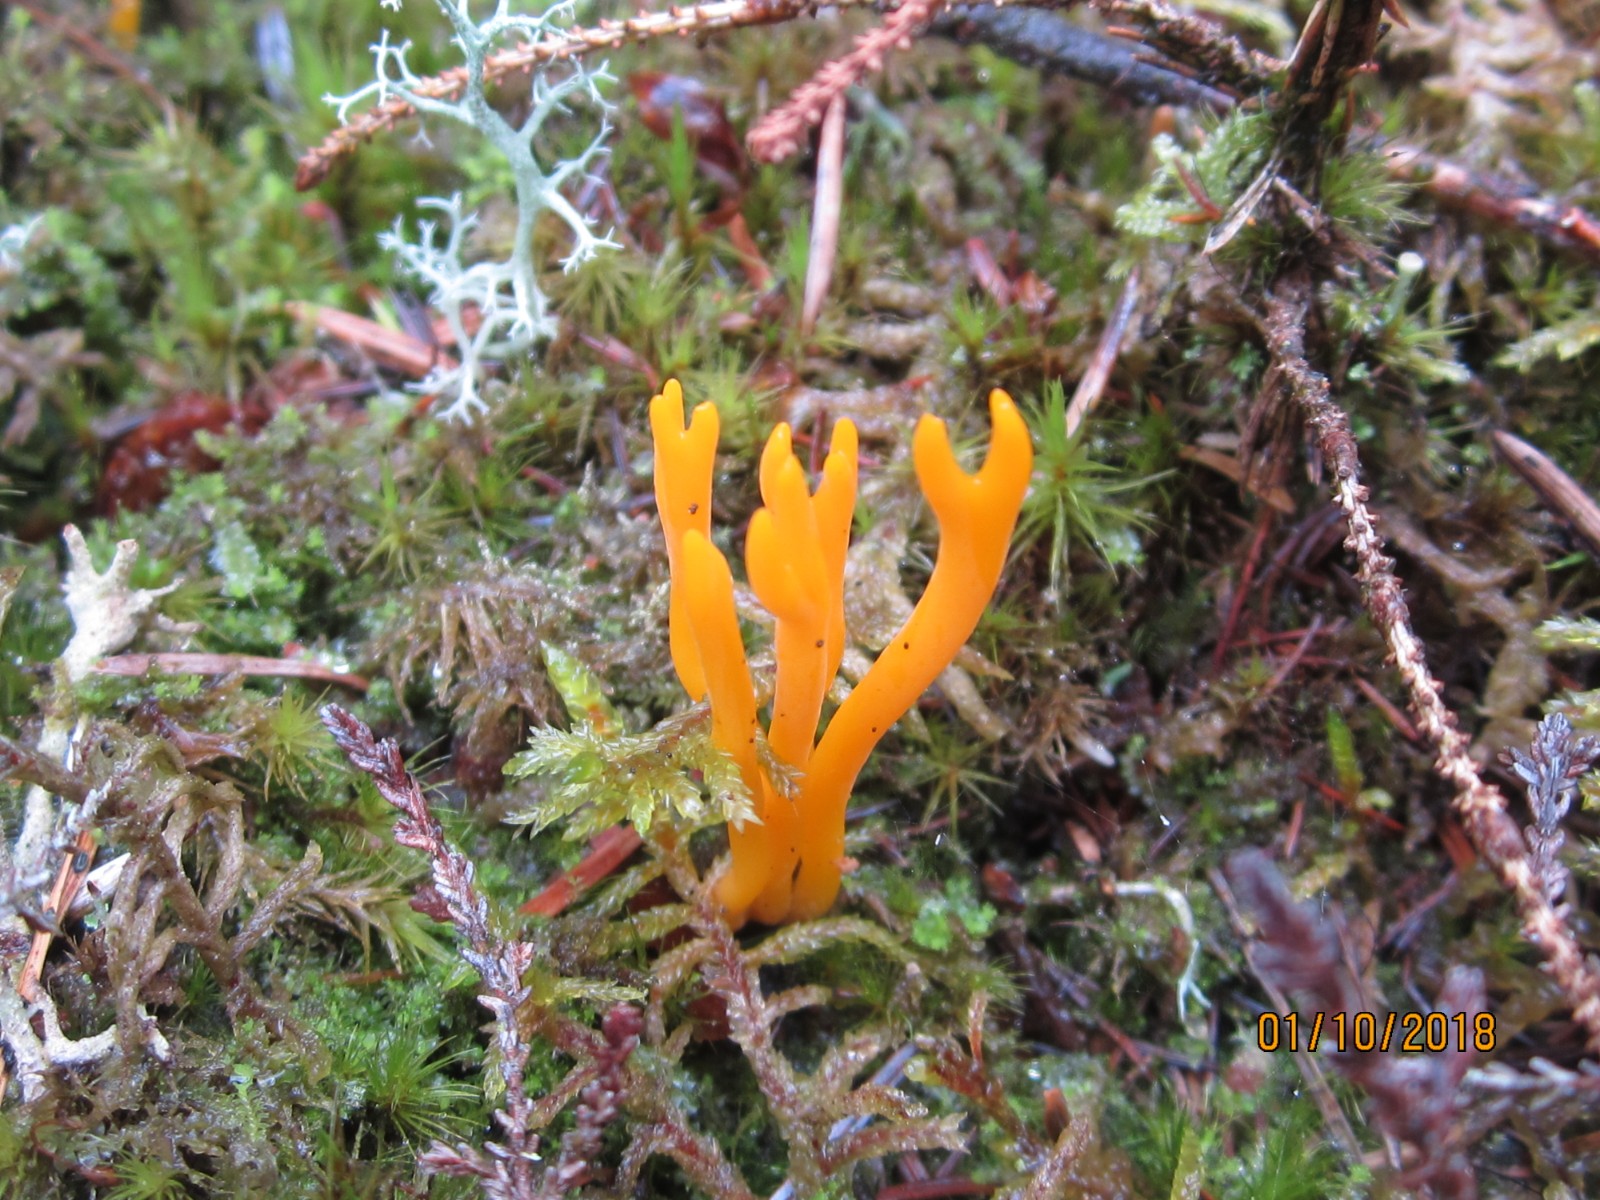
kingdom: Fungi
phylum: Basidiomycota
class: Dacrymycetes
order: Dacrymycetales
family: Dacrymycetaceae
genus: Calocera
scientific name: Calocera viscosa
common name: almindelig guldgaffel
